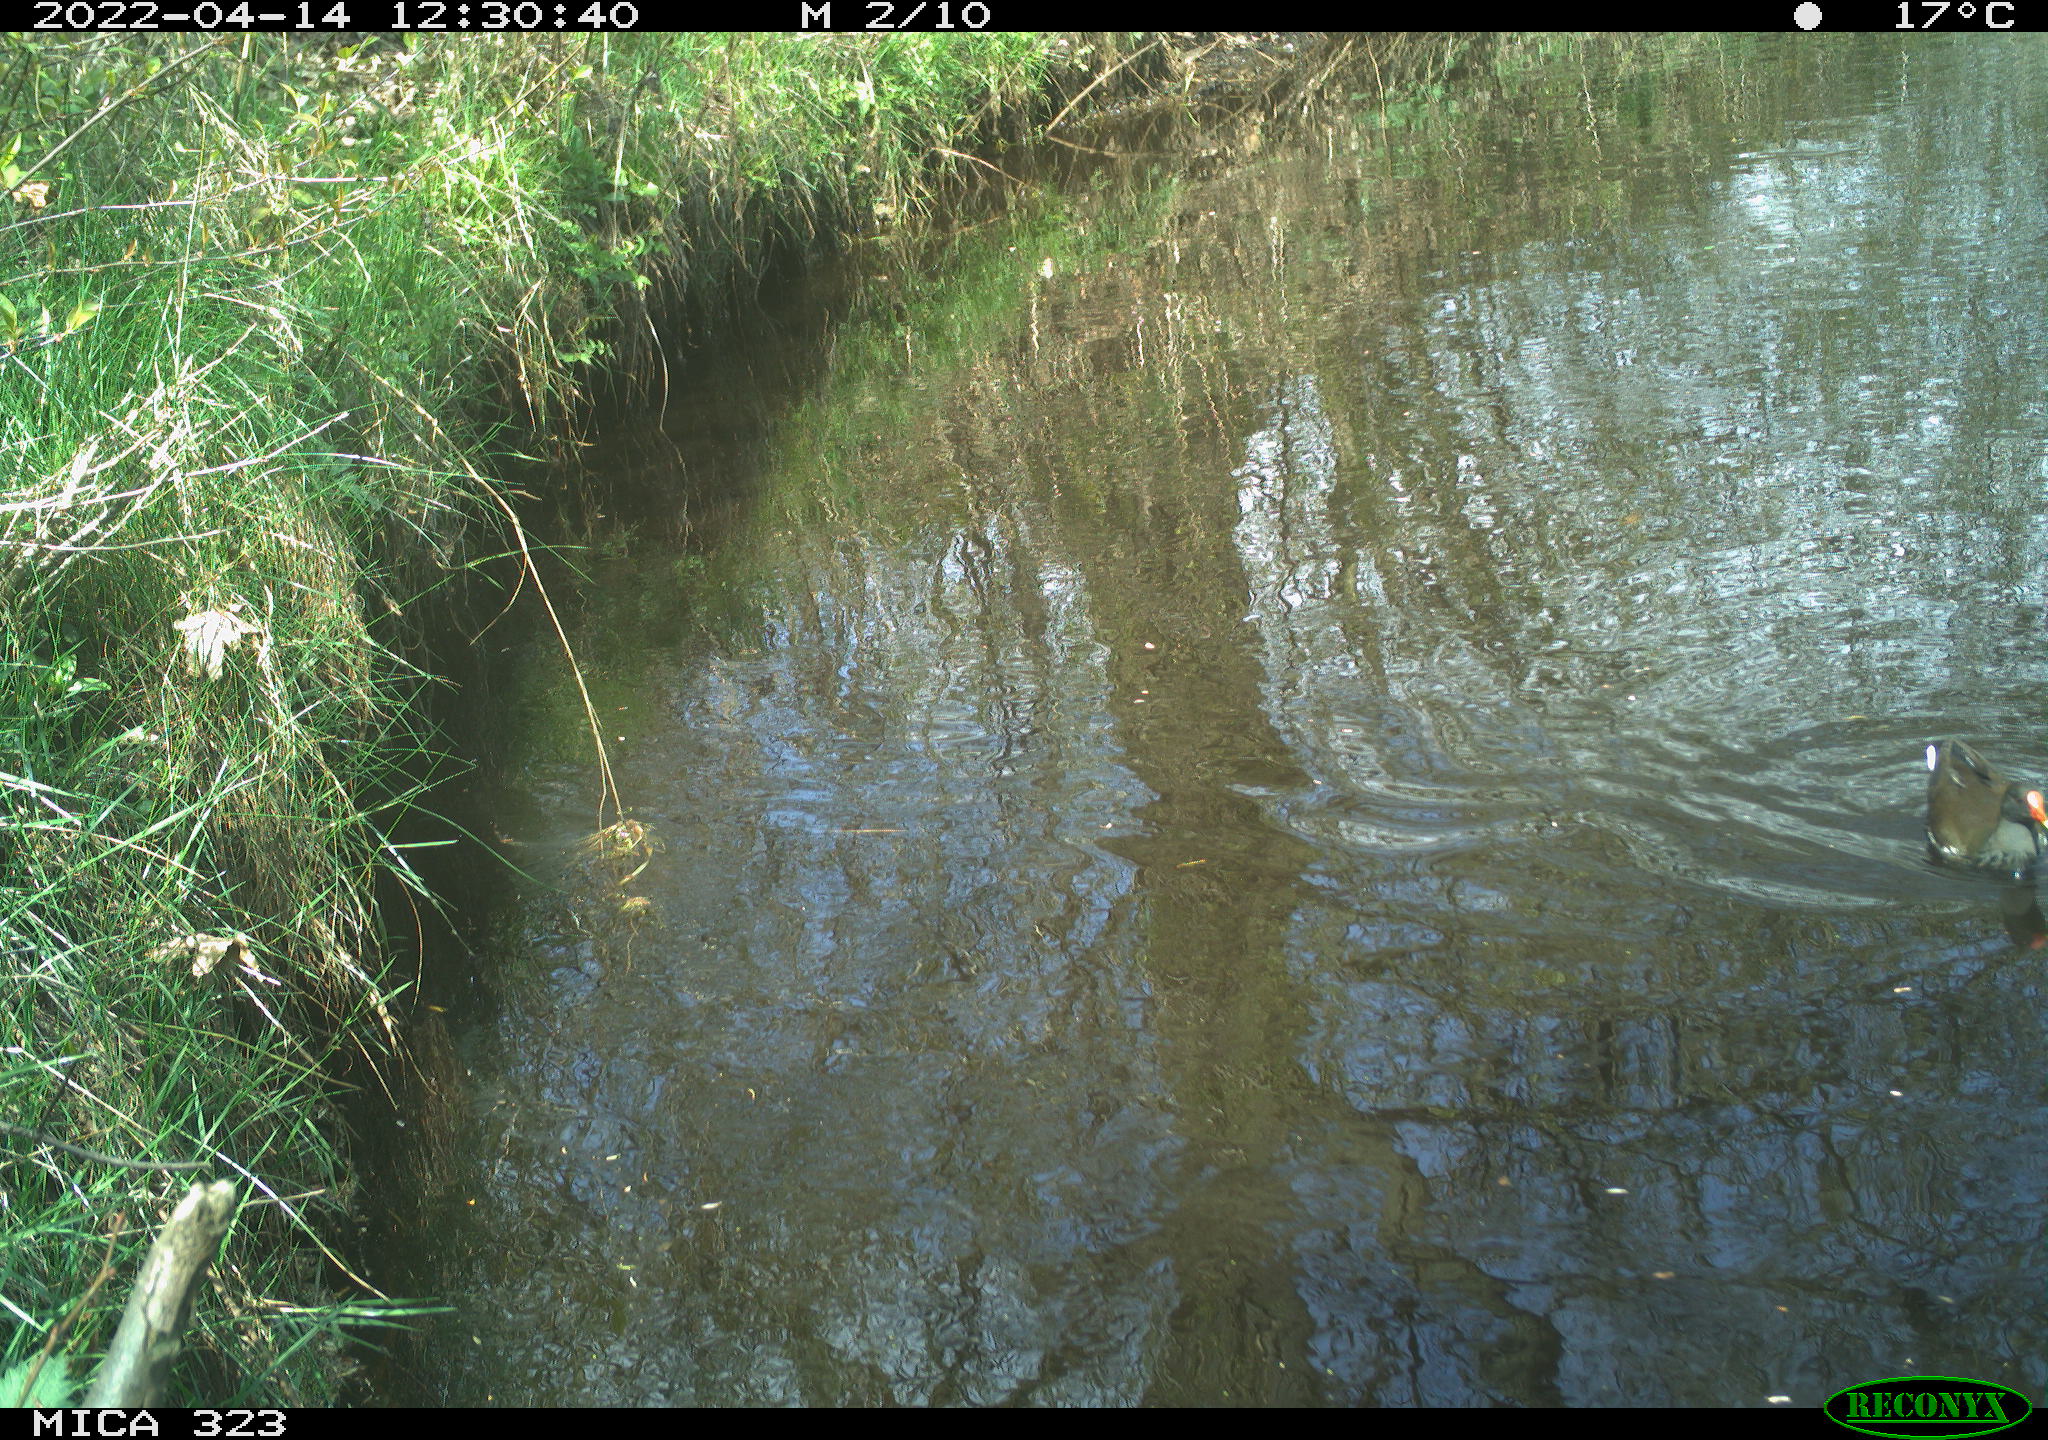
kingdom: Animalia
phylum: Chordata
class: Aves
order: Gruiformes
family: Rallidae
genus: Gallinula
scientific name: Gallinula chloropus
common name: Common moorhen
